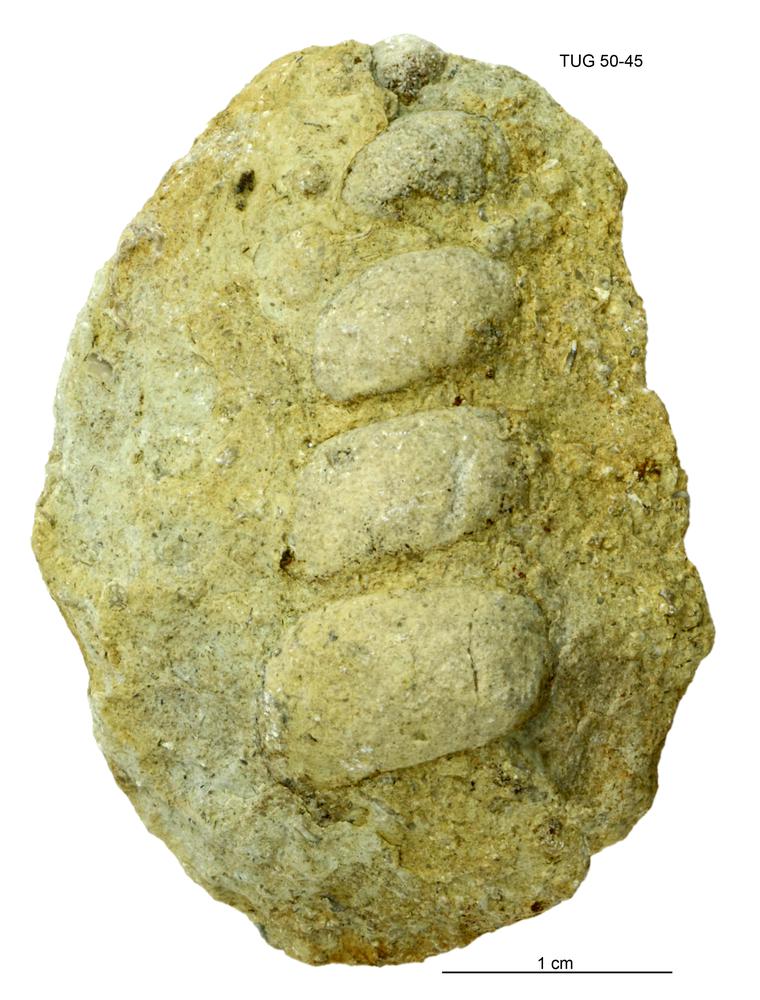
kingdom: Animalia
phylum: Mollusca
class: Gastropoda
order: Pleurotomariida
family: Murchisoniidae
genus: Murchisonia
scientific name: Murchisonia scrobiculata
